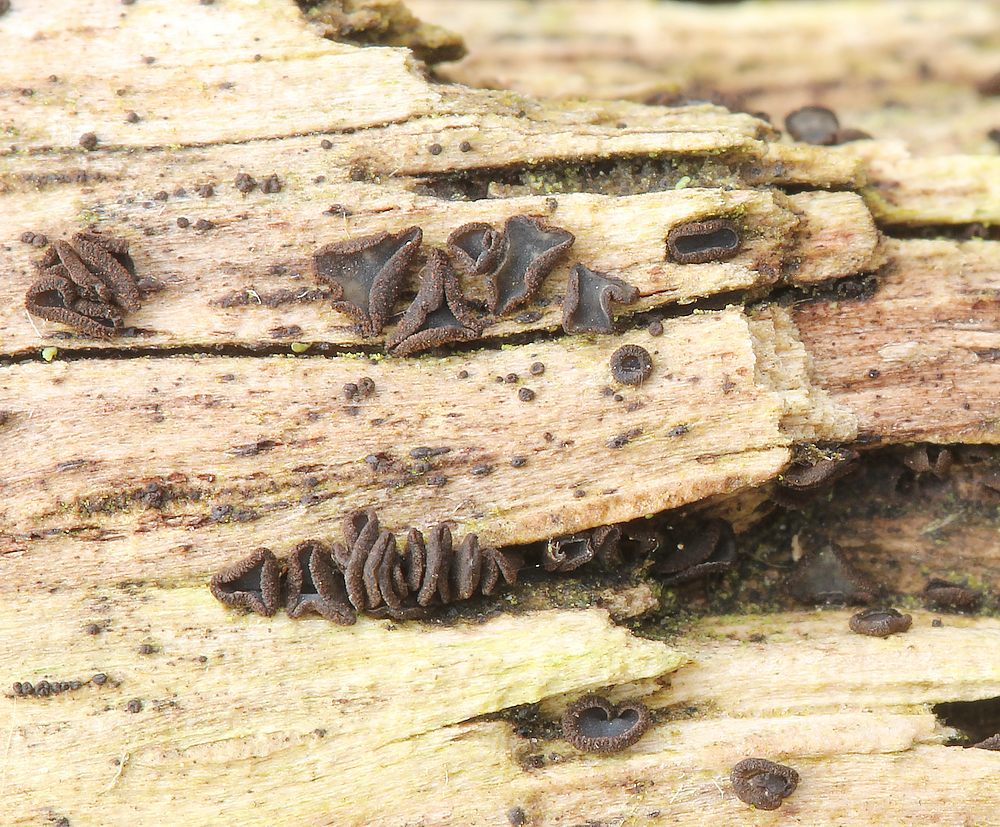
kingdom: Fungi
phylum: Ascomycota
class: Leotiomycetes
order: Helotiales
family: Mollisiaceae
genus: Mollisia
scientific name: Mollisia ligni
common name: ved-gråskive
